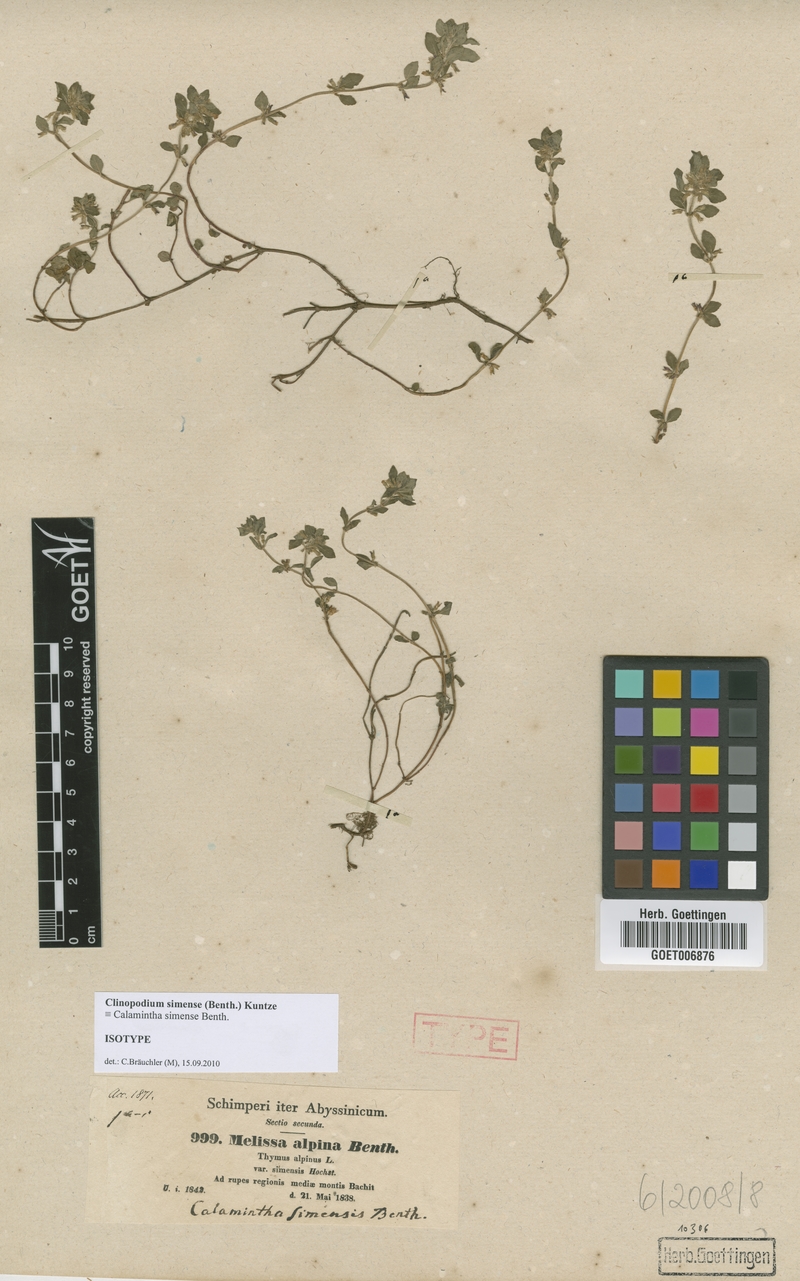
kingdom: Plantae
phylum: Tracheophyta
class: Magnoliopsida
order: Lamiales
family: Lamiaceae
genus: Clinopodium
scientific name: Clinopodium simense
